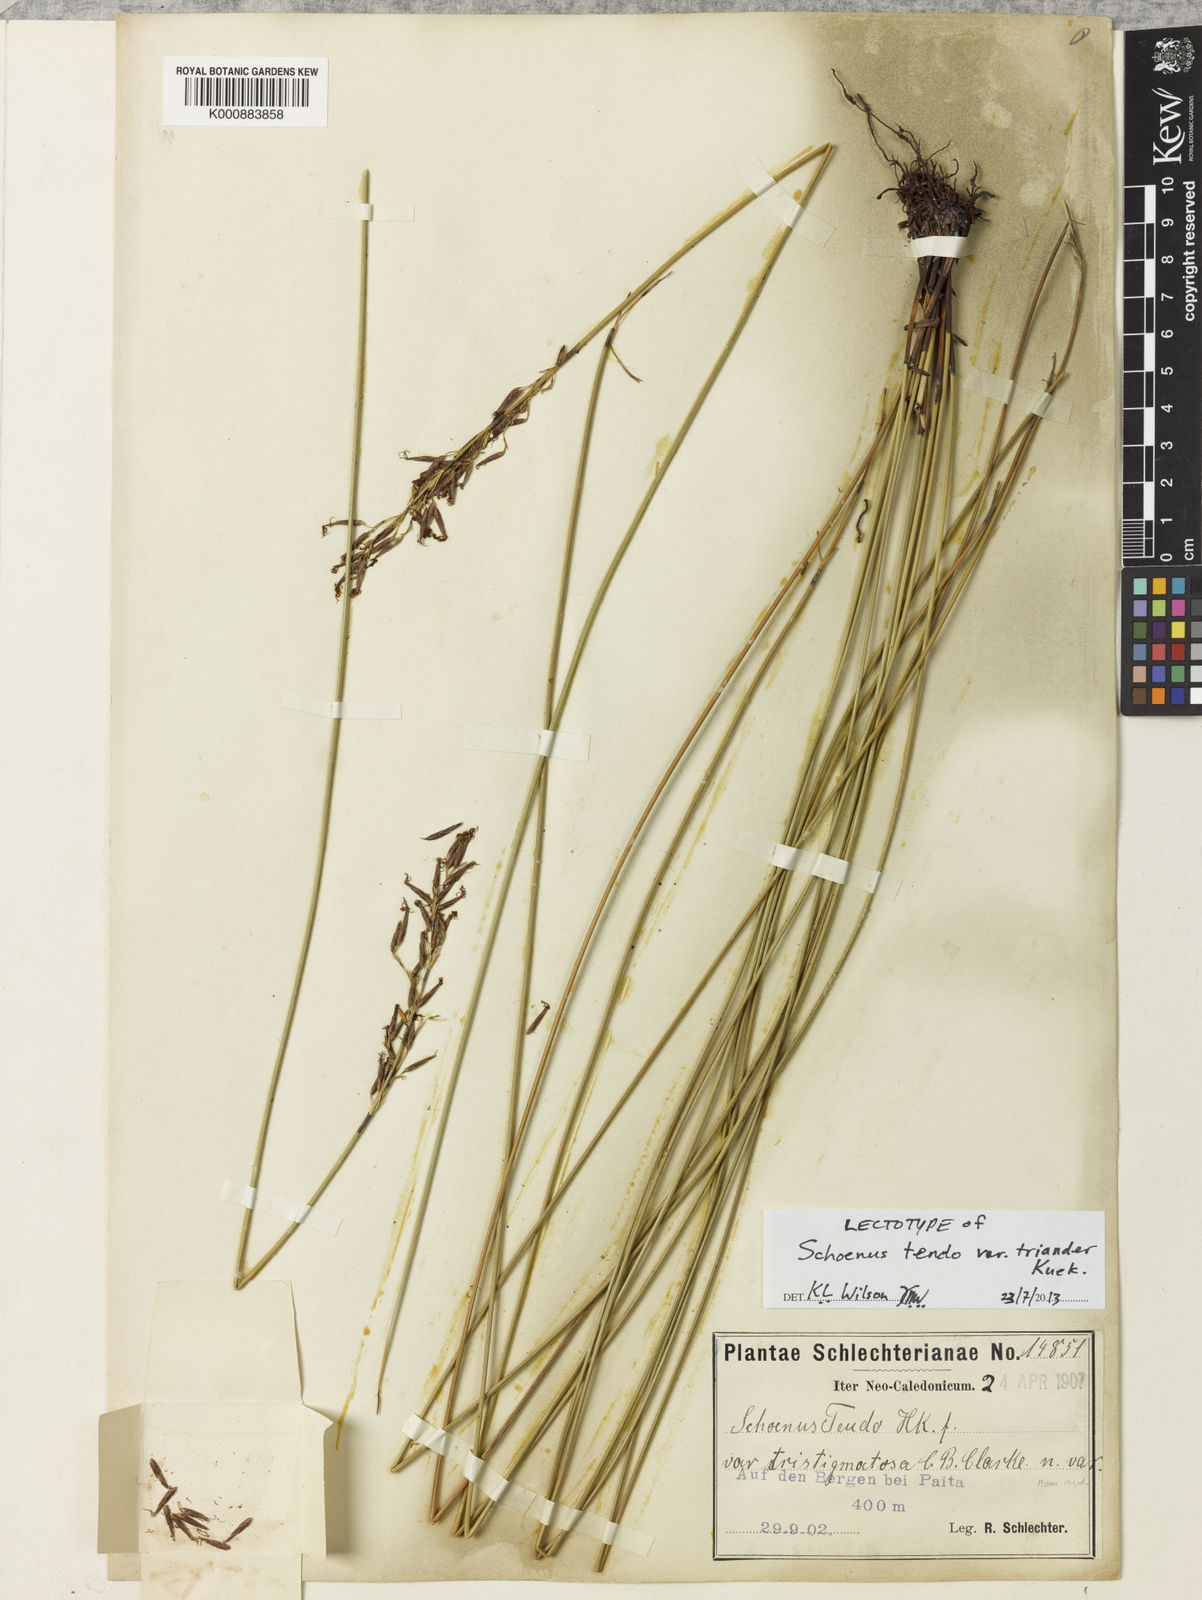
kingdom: Plantae
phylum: Tracheophyta
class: Liliopsida
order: Poales
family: Cyperaceae
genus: Schoenus
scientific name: Schoenus tendo
